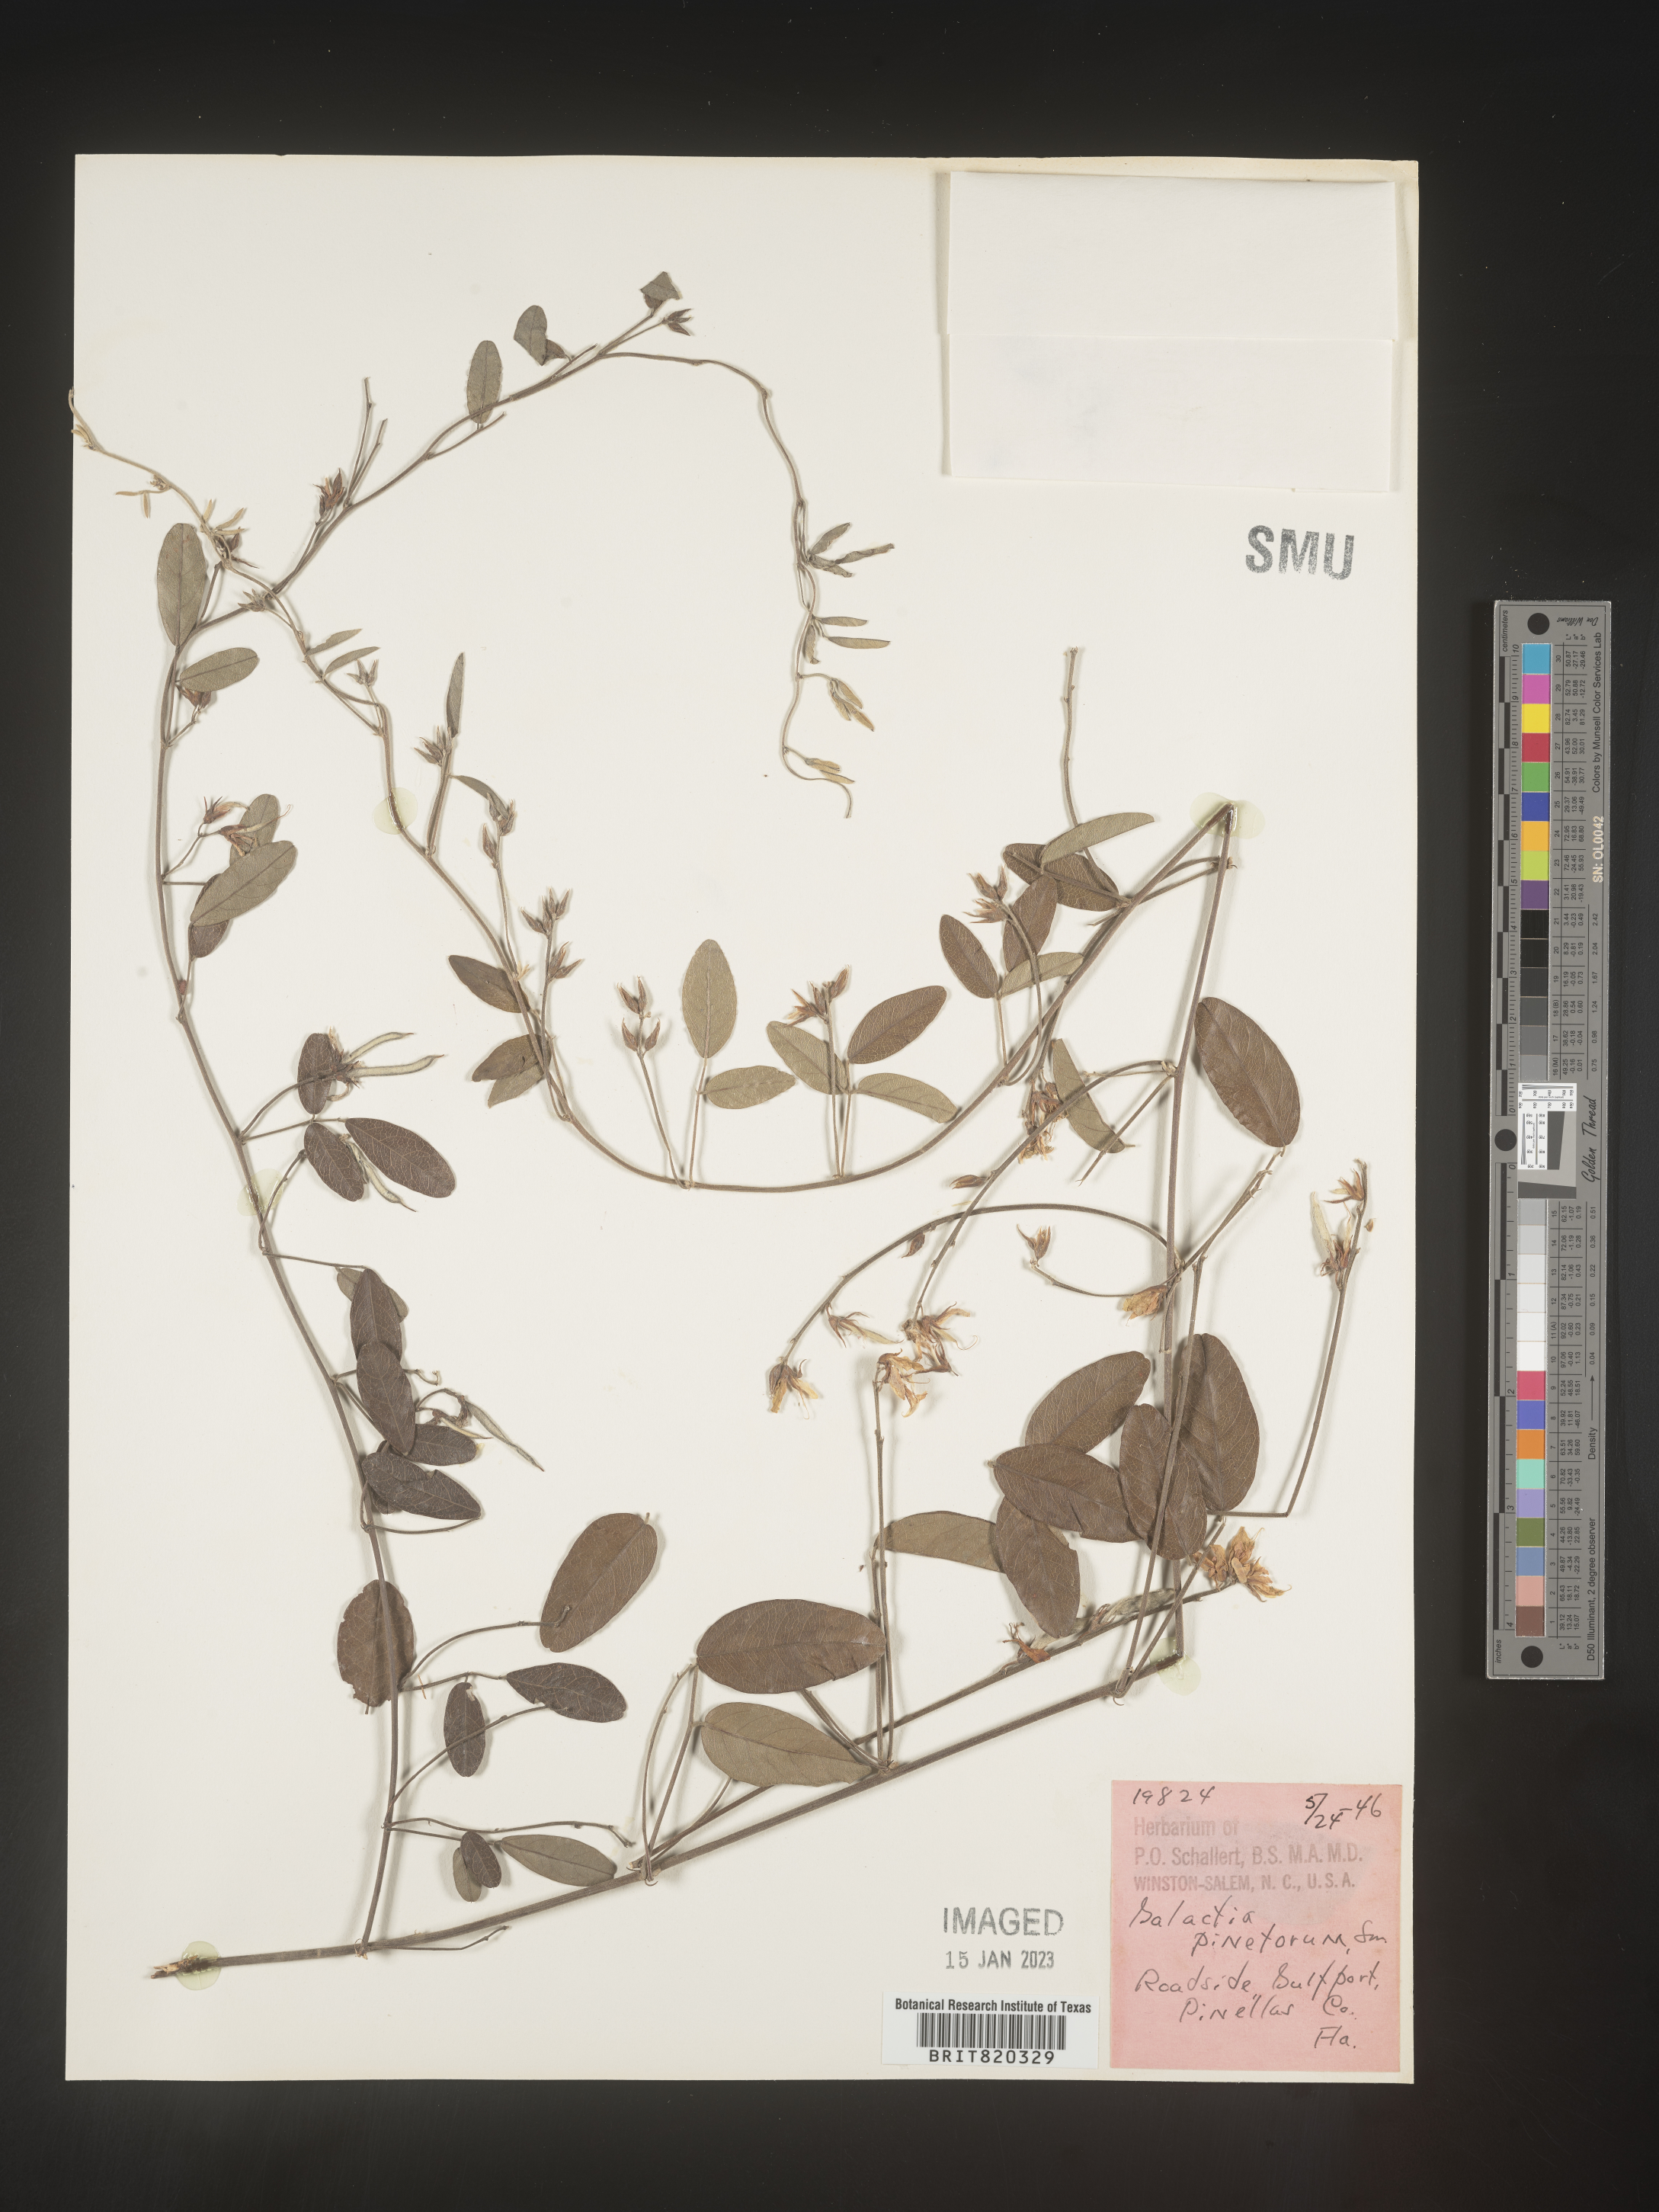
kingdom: Plantae
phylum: Tracheophyta
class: Magnoliopsida
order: Fabales
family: Fabaceae
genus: Galactia
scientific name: Galactia regularis
